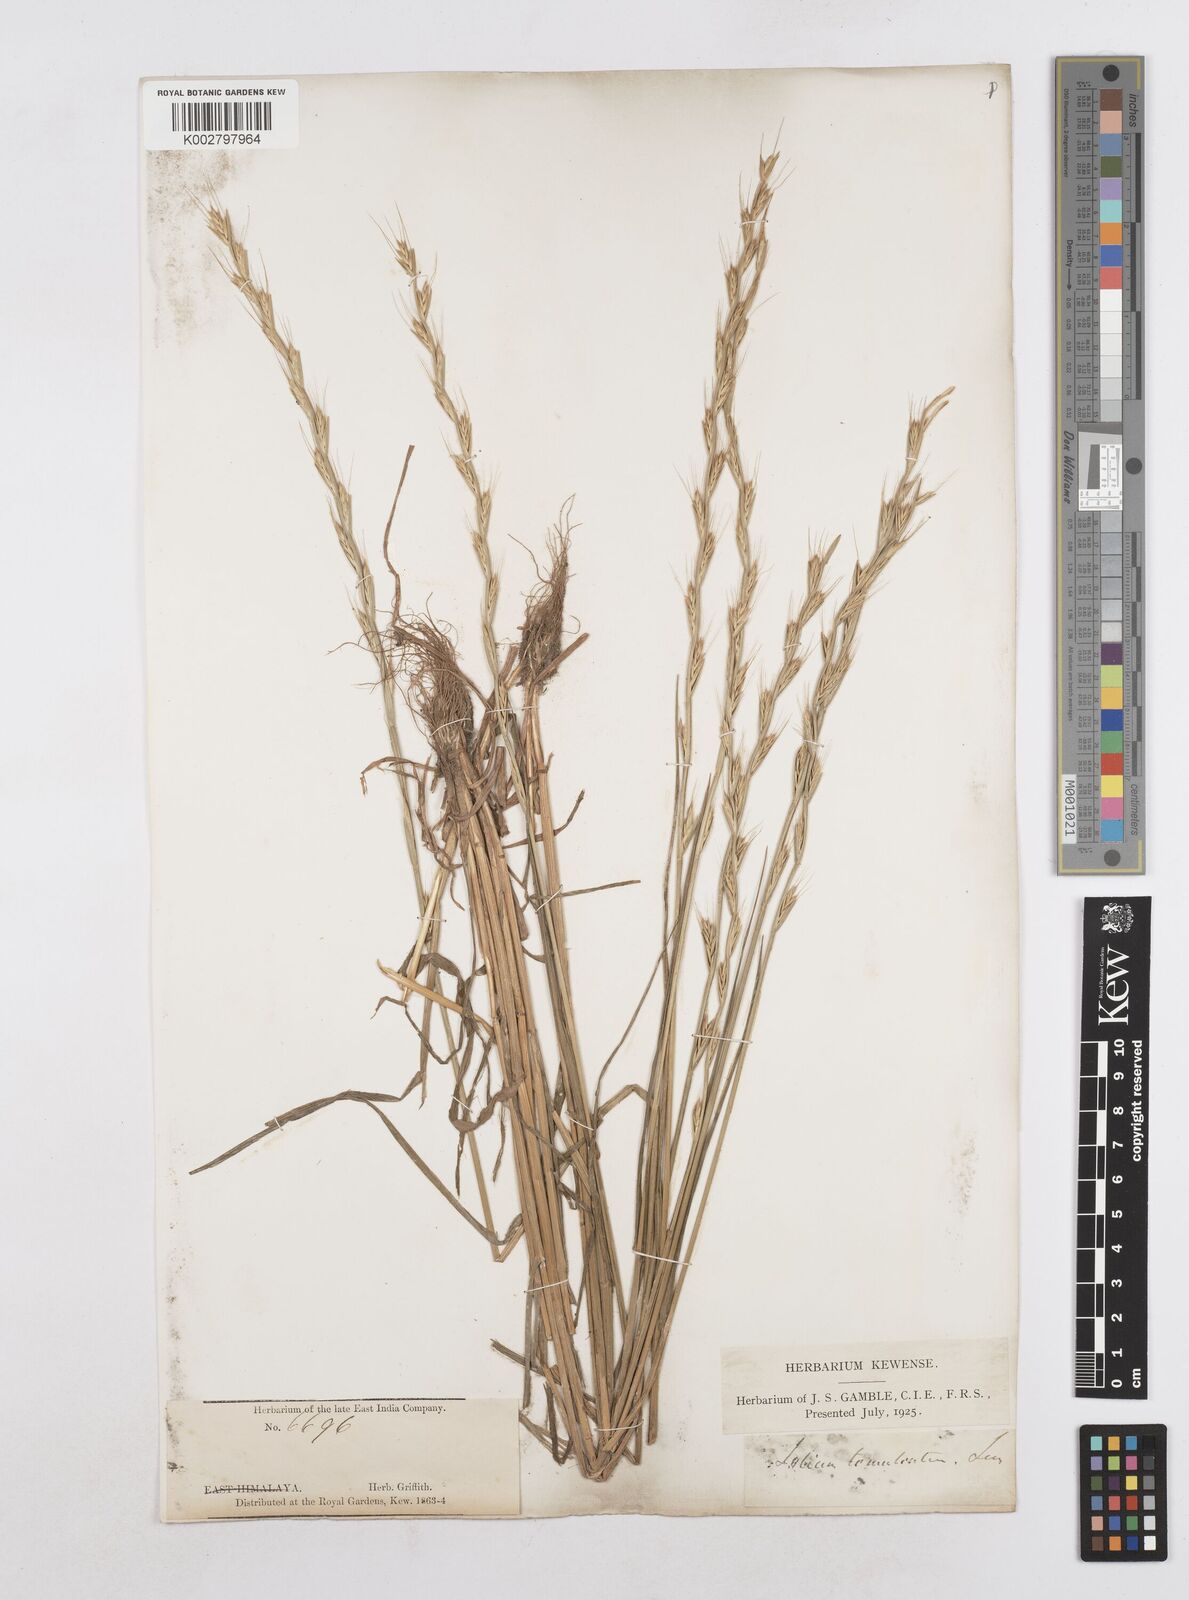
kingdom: Plantae
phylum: Tracheophyta
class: Liliopsida
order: Poales
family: Poaceae
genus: Lolium
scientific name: Lolium temulentum
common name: Darnel
